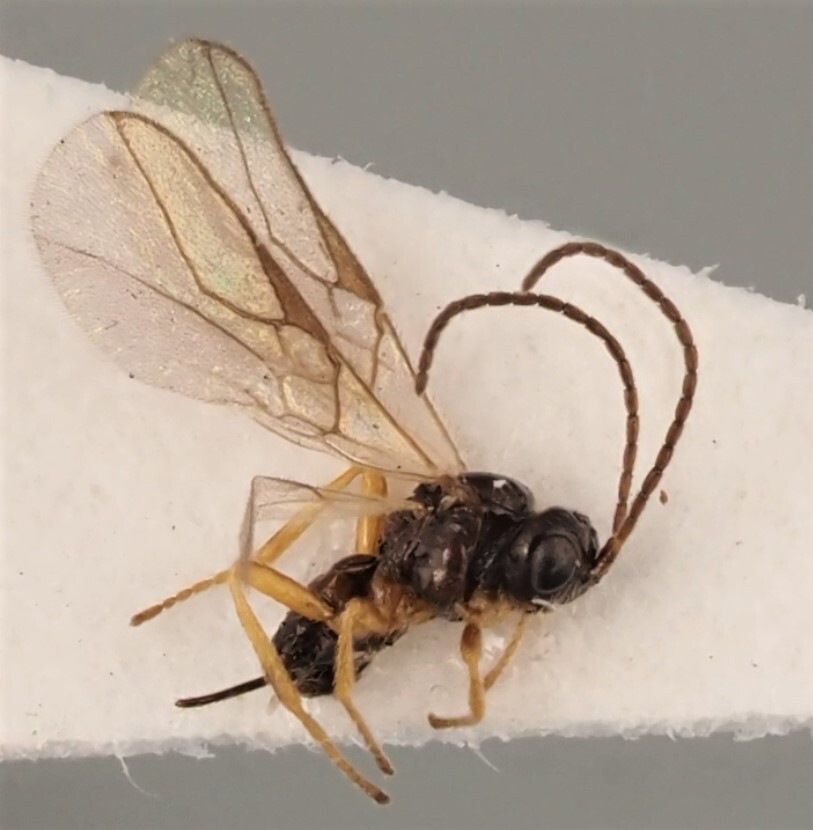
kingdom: Animalia
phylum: Arthropoda
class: Insecta
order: Hymenoptera
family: Braconidae
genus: Opius
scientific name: Opius inflammatus
